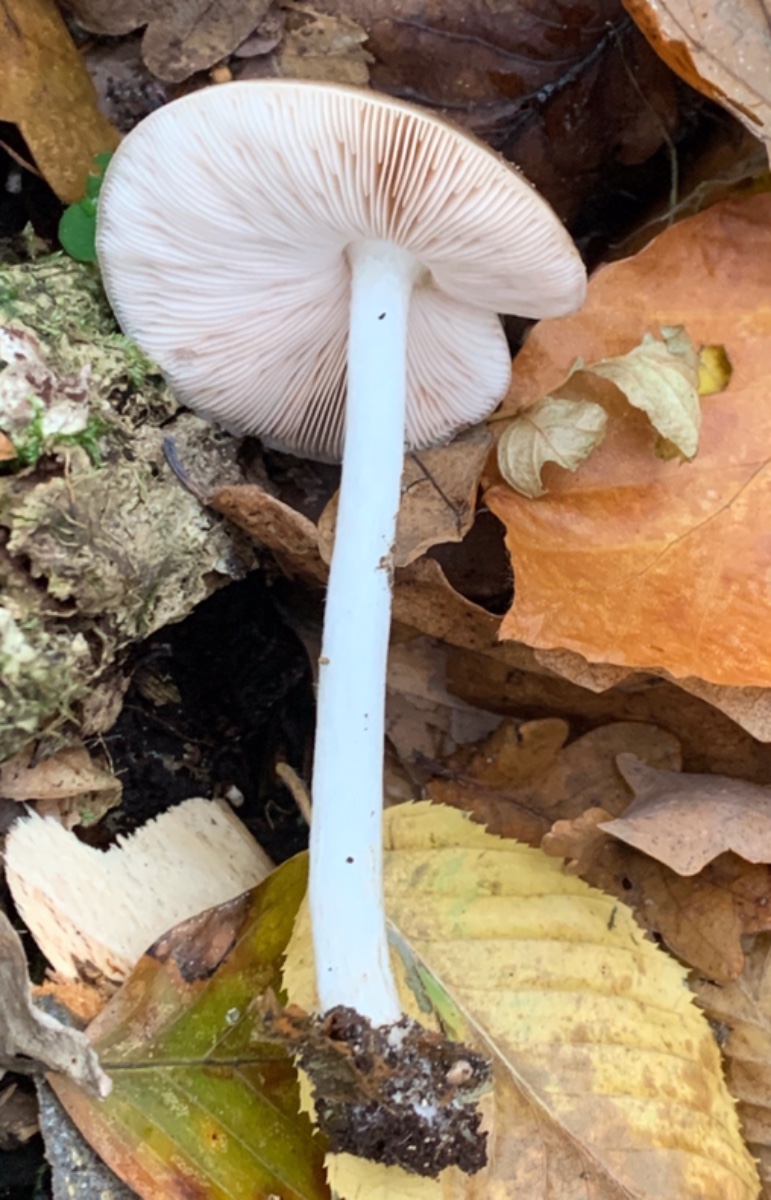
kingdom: Fungi
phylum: Basidiomycota
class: Agaricomycetes
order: Agaricales
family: Pluteaceae
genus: Pluteus
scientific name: Pluteus cervinus
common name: sodfarvet skærmhat
